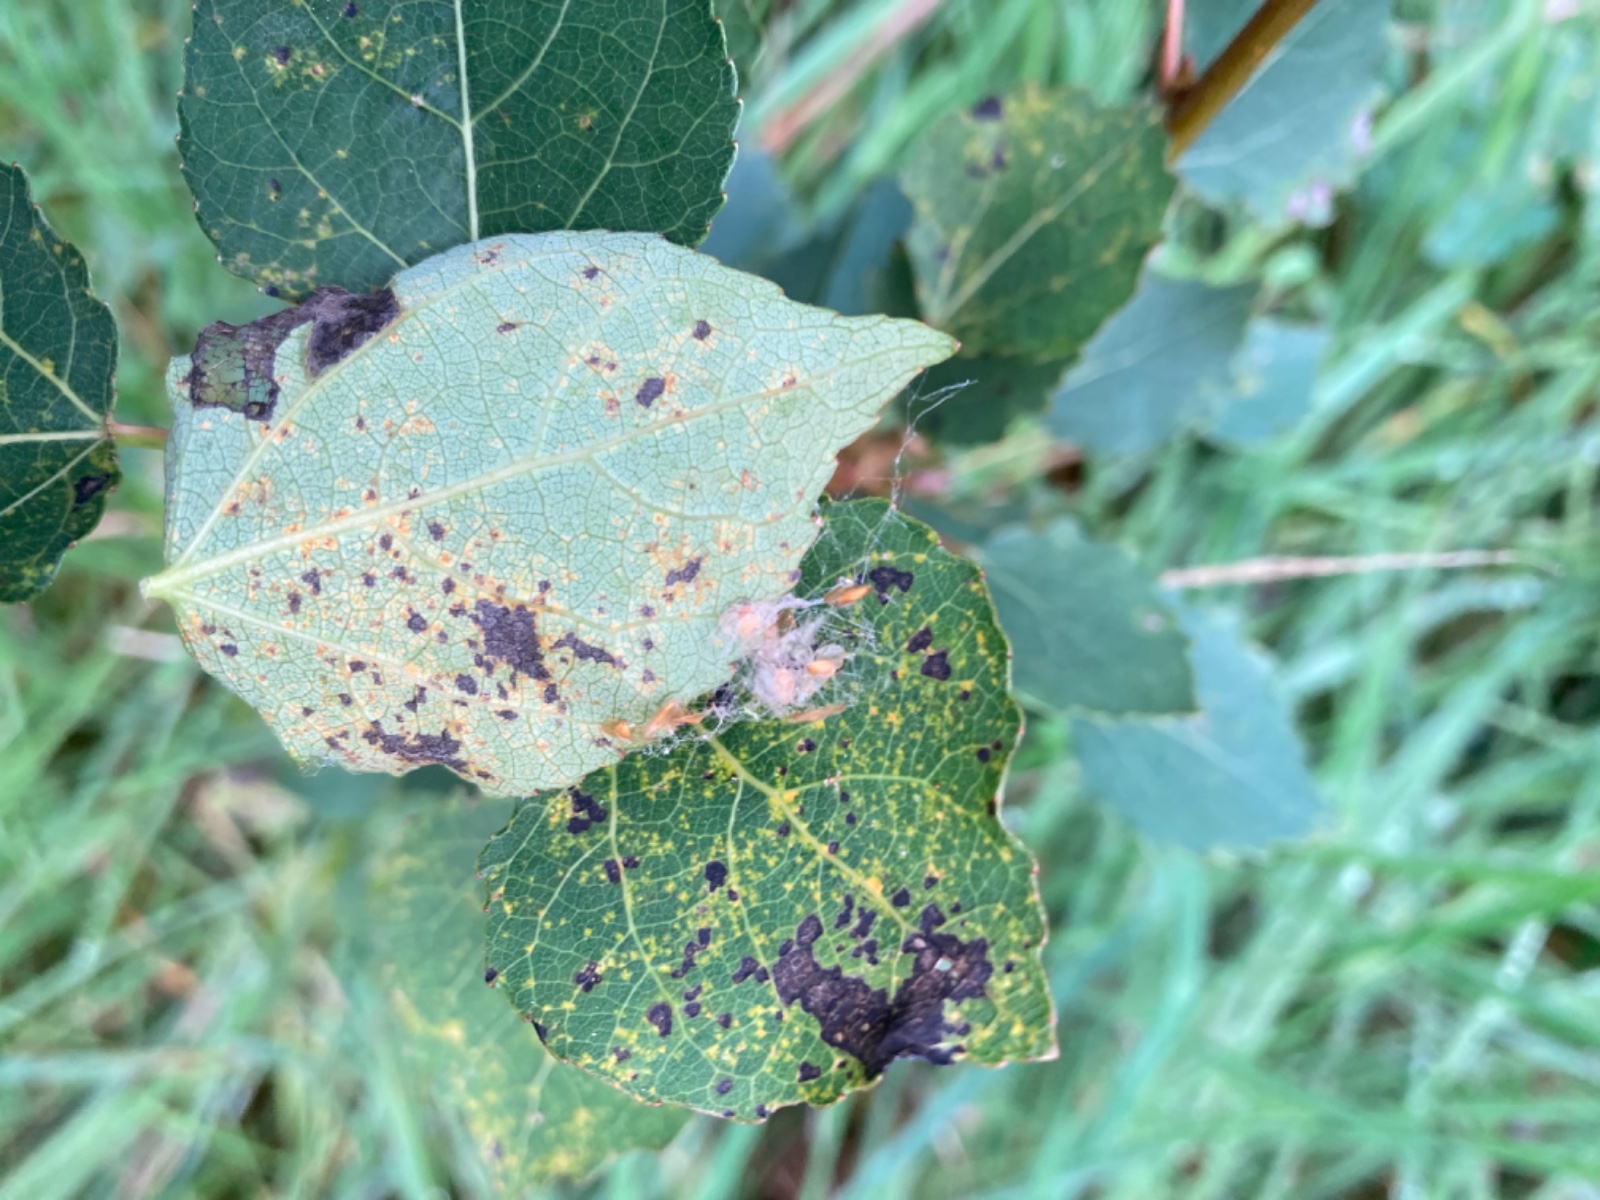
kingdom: Fungi
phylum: Basidiomycota
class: Pucciniomycetes
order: Pucciniales
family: Pucciniastraceae
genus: Melampsoridium
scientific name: Melampsoridium betulinum
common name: Birch rust
